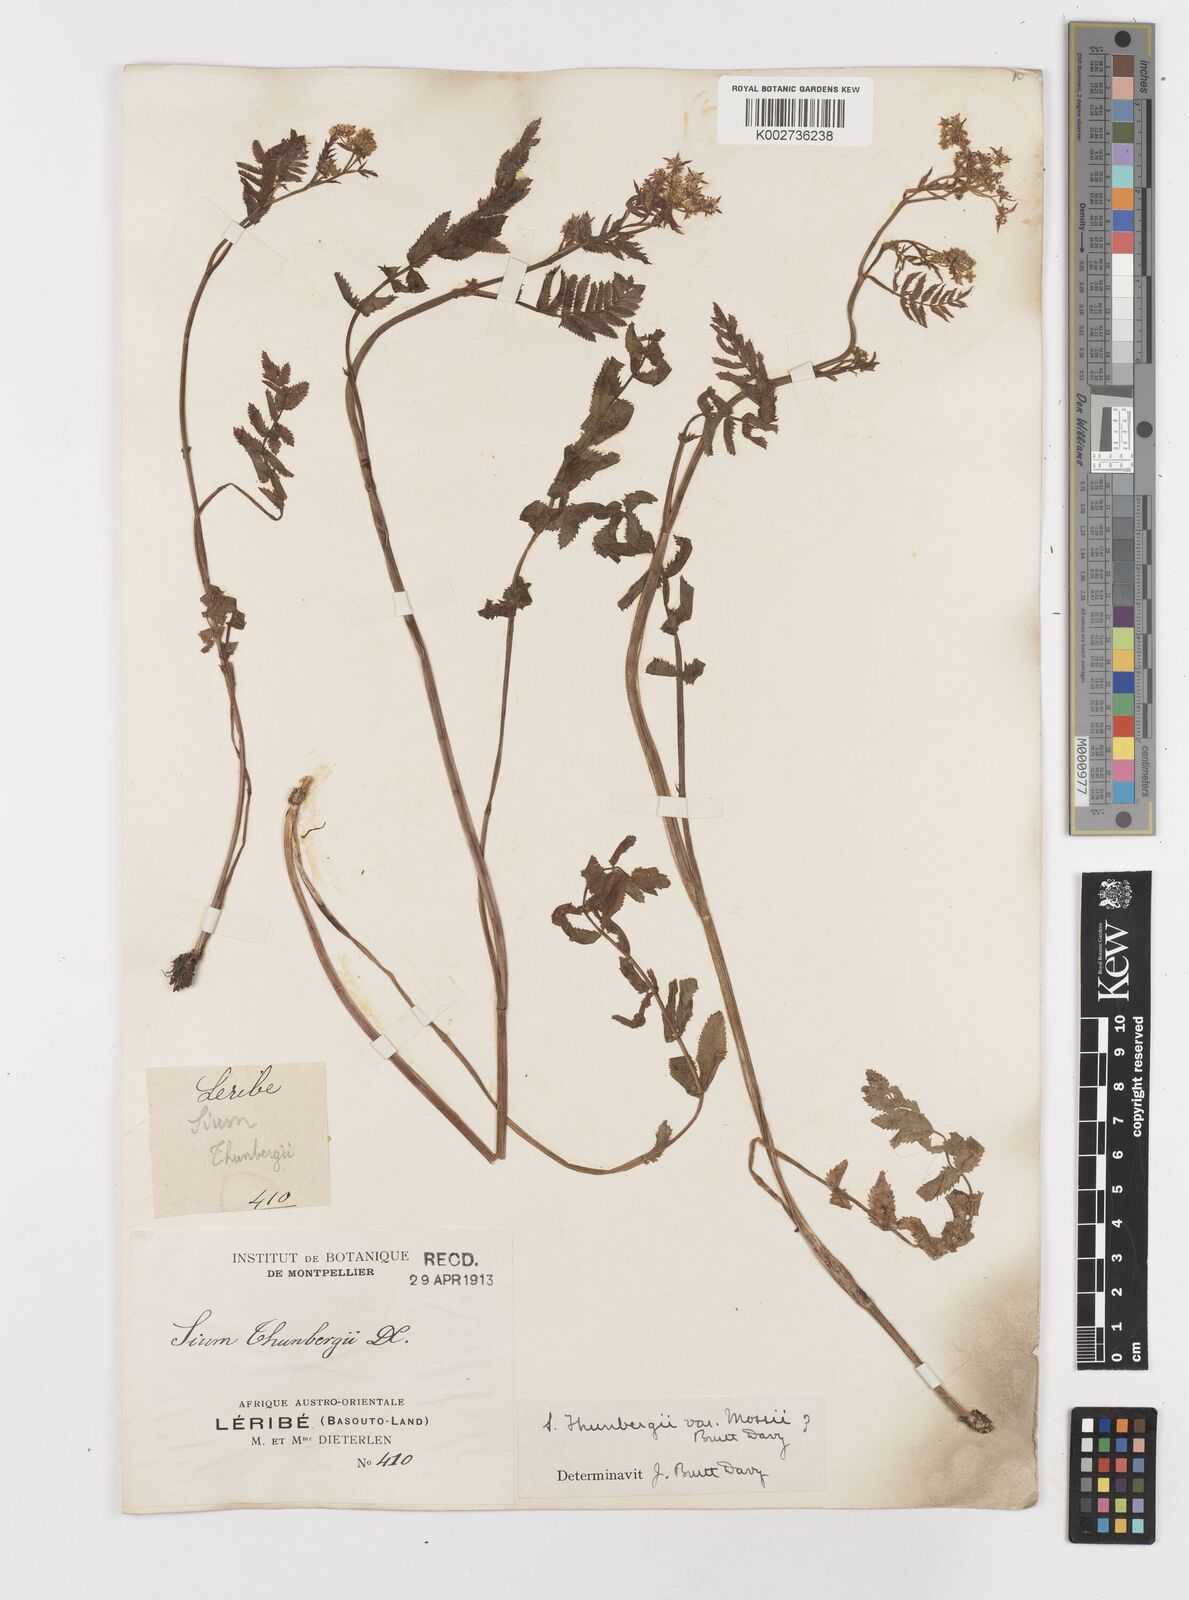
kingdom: Plantae
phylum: Tracheophyta
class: Magnoliopsida
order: Apiales
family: Apiaceae
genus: Berula
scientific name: Berula erecta
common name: Lesser water-parsnip
